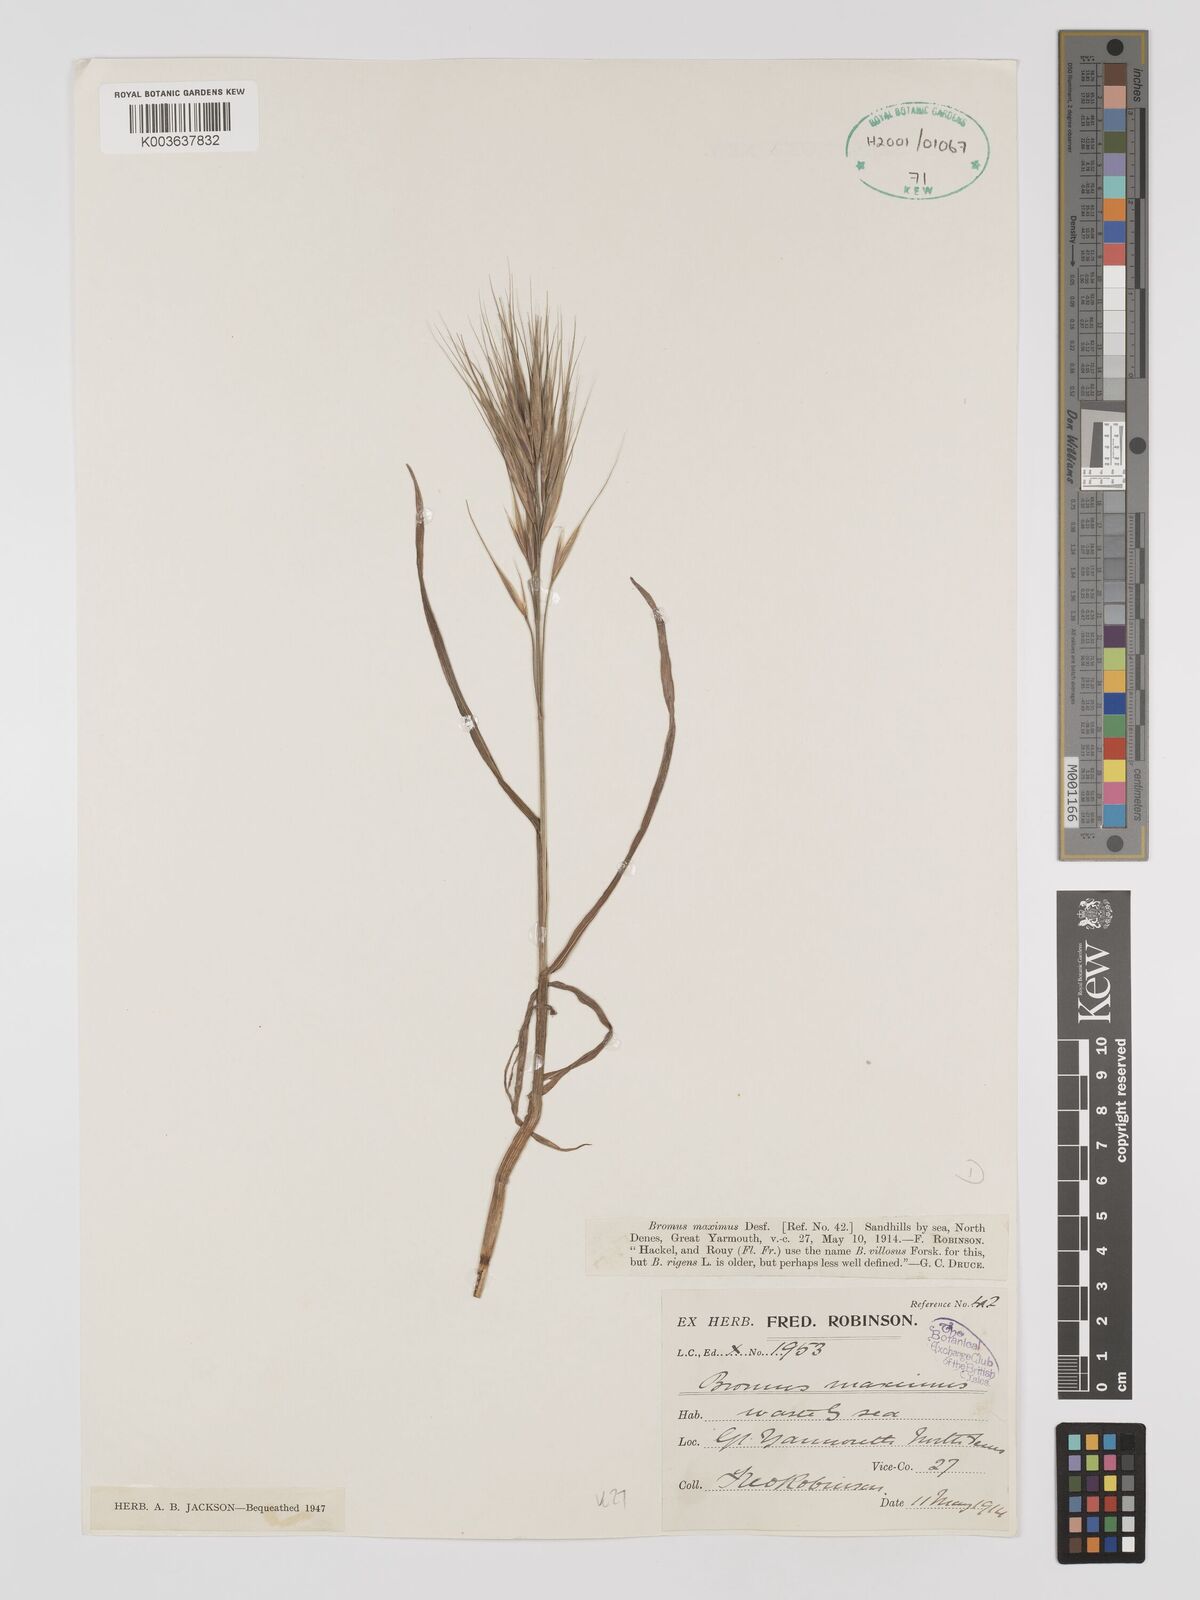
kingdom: Plantae
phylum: Tracheophyta
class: Liliopsida
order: Poales
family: Poaceae
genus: Bromus
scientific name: Bromus
